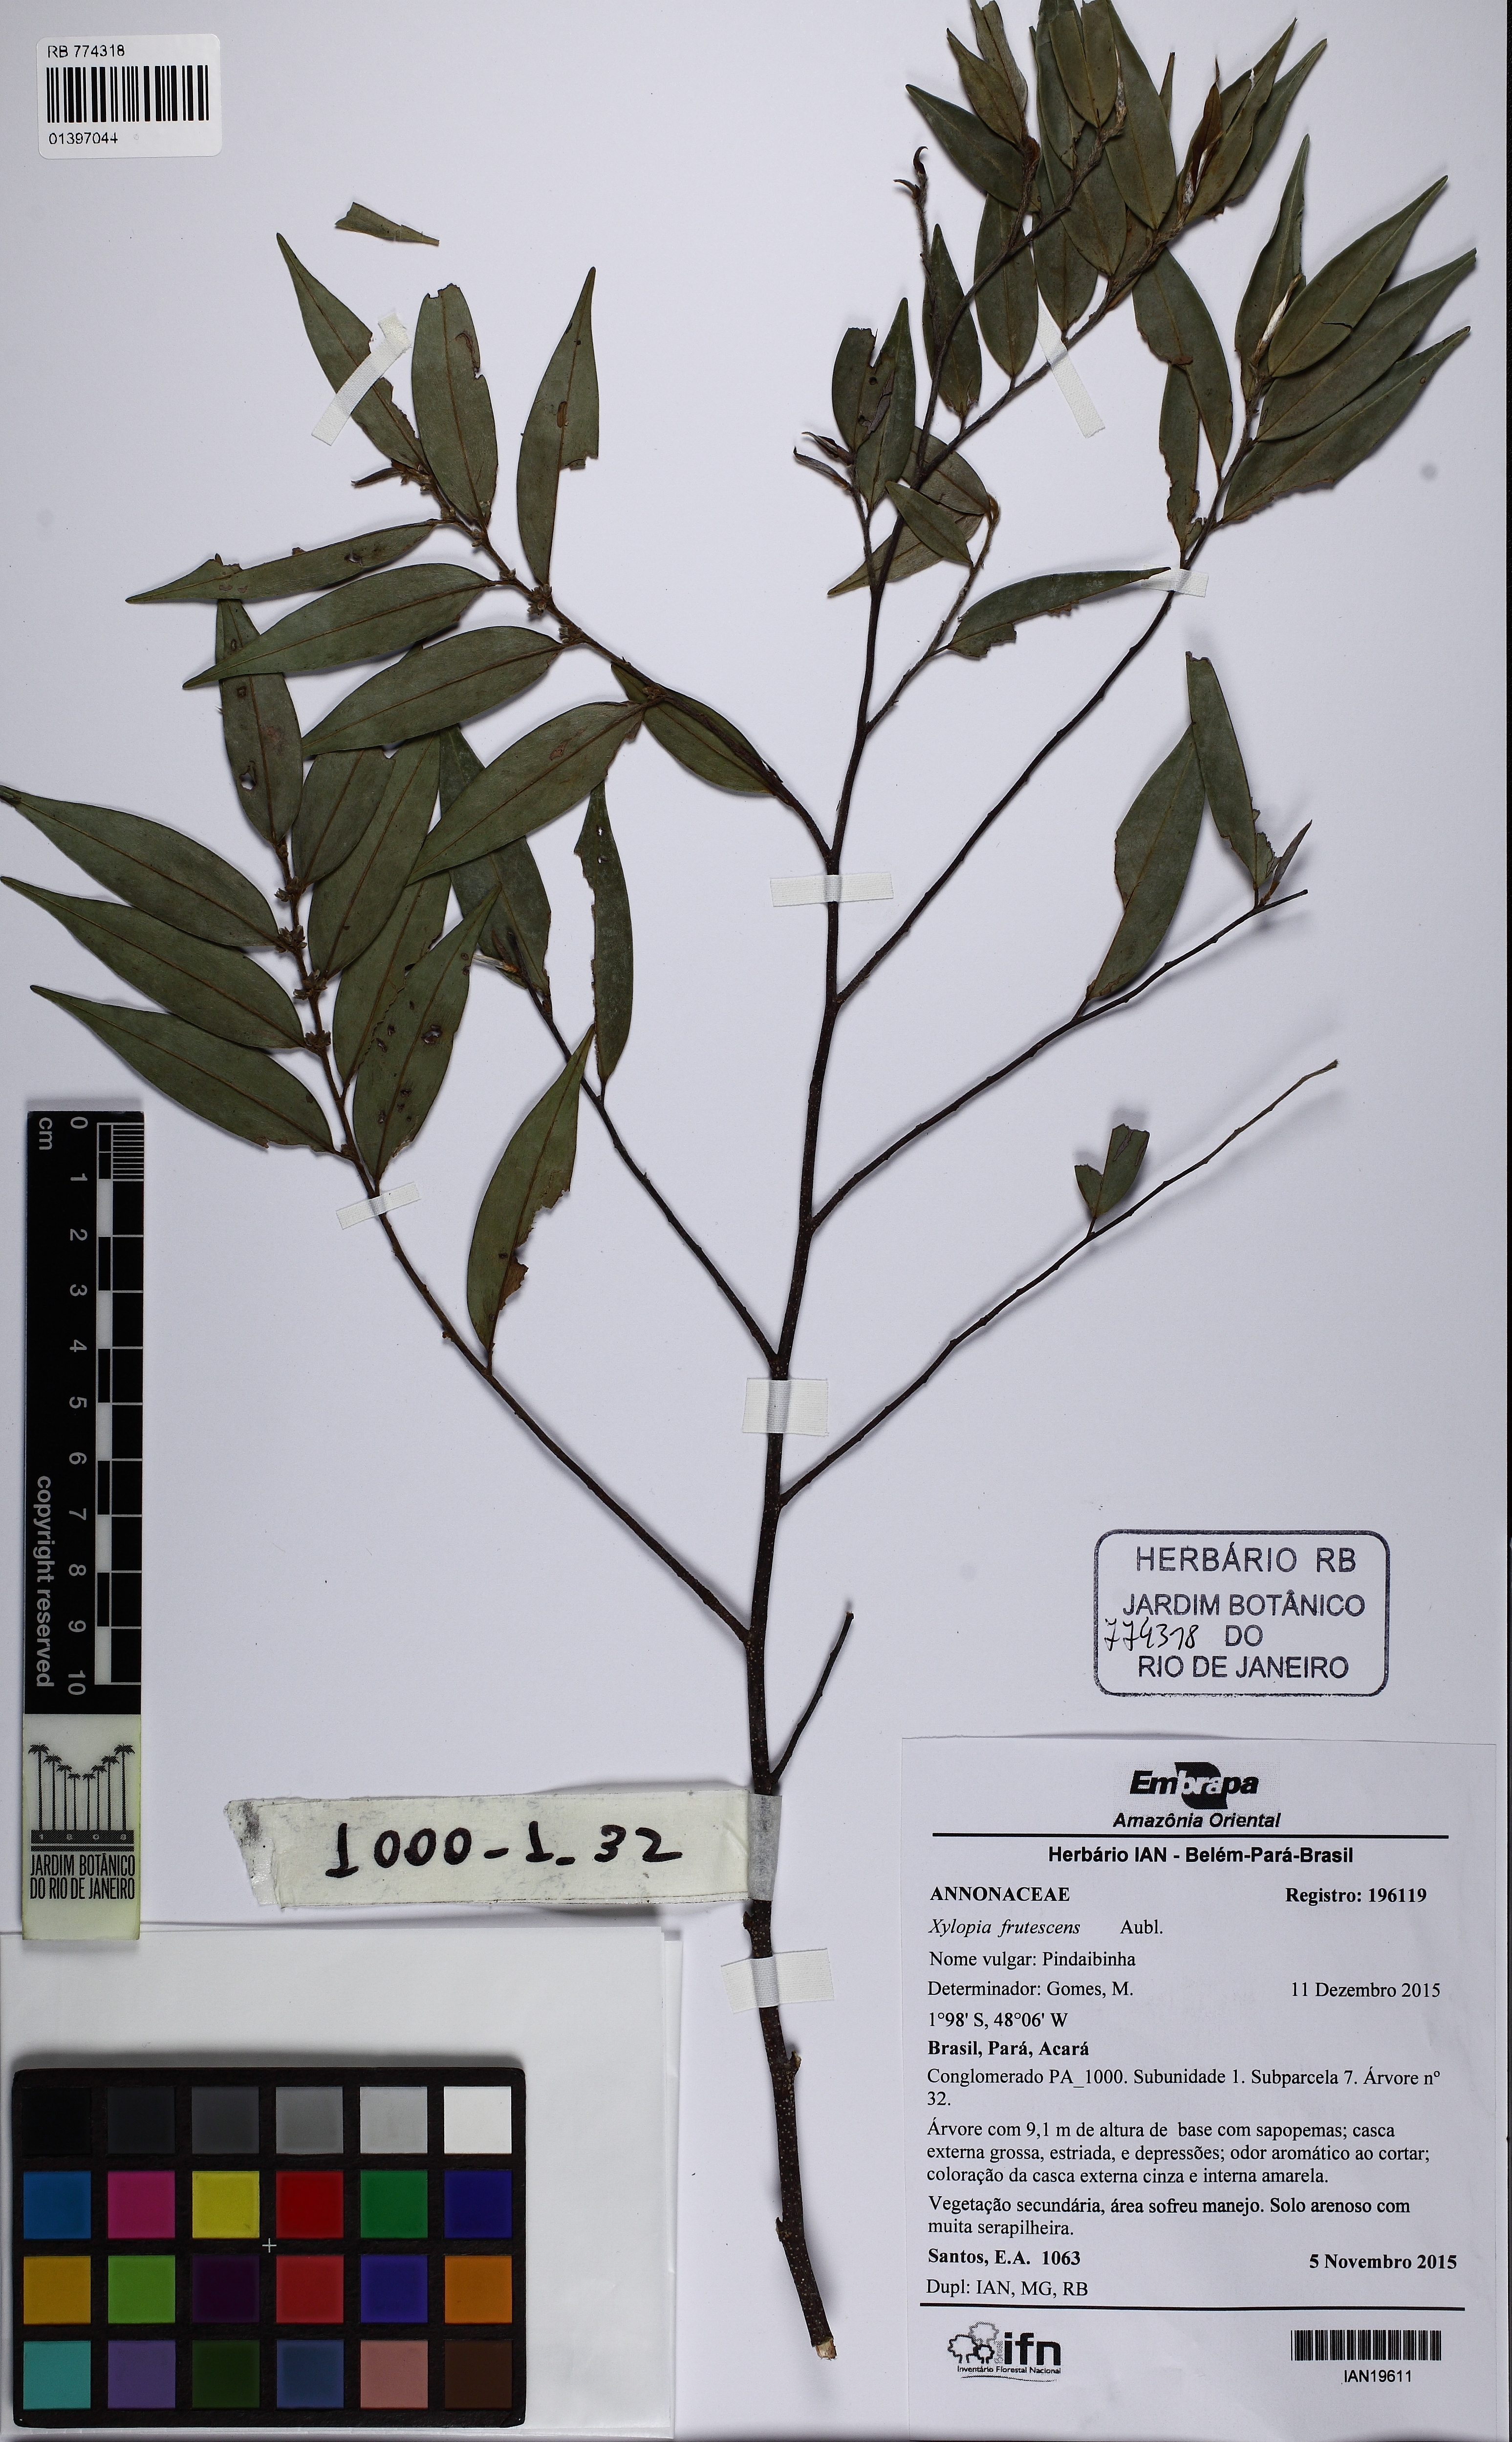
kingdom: Plantae
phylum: Tracheophyta
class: Magnoliopsida
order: Magnoliales
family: Annonaceae
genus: Xylopia
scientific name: Xylopia frutescens
